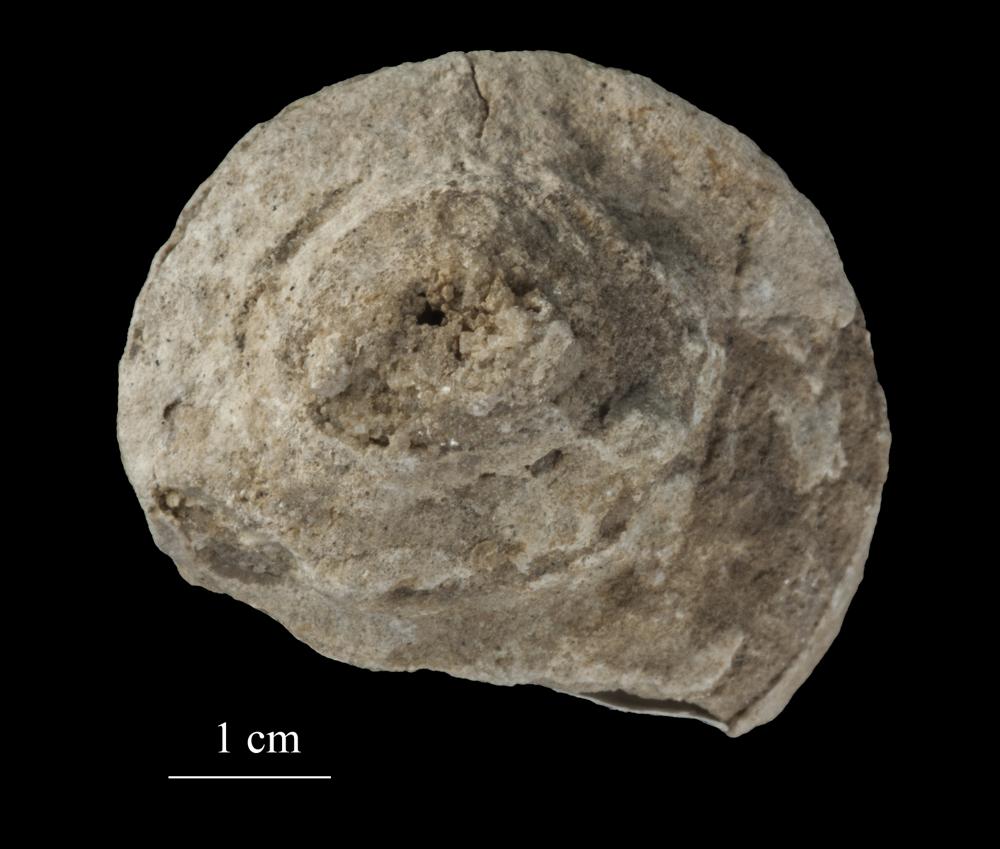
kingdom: Animalia
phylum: Mollusca
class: Gastropoda
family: Lophospiridae
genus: Ruedemannia
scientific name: Ruedemannia Worthenia borkholmiensis
